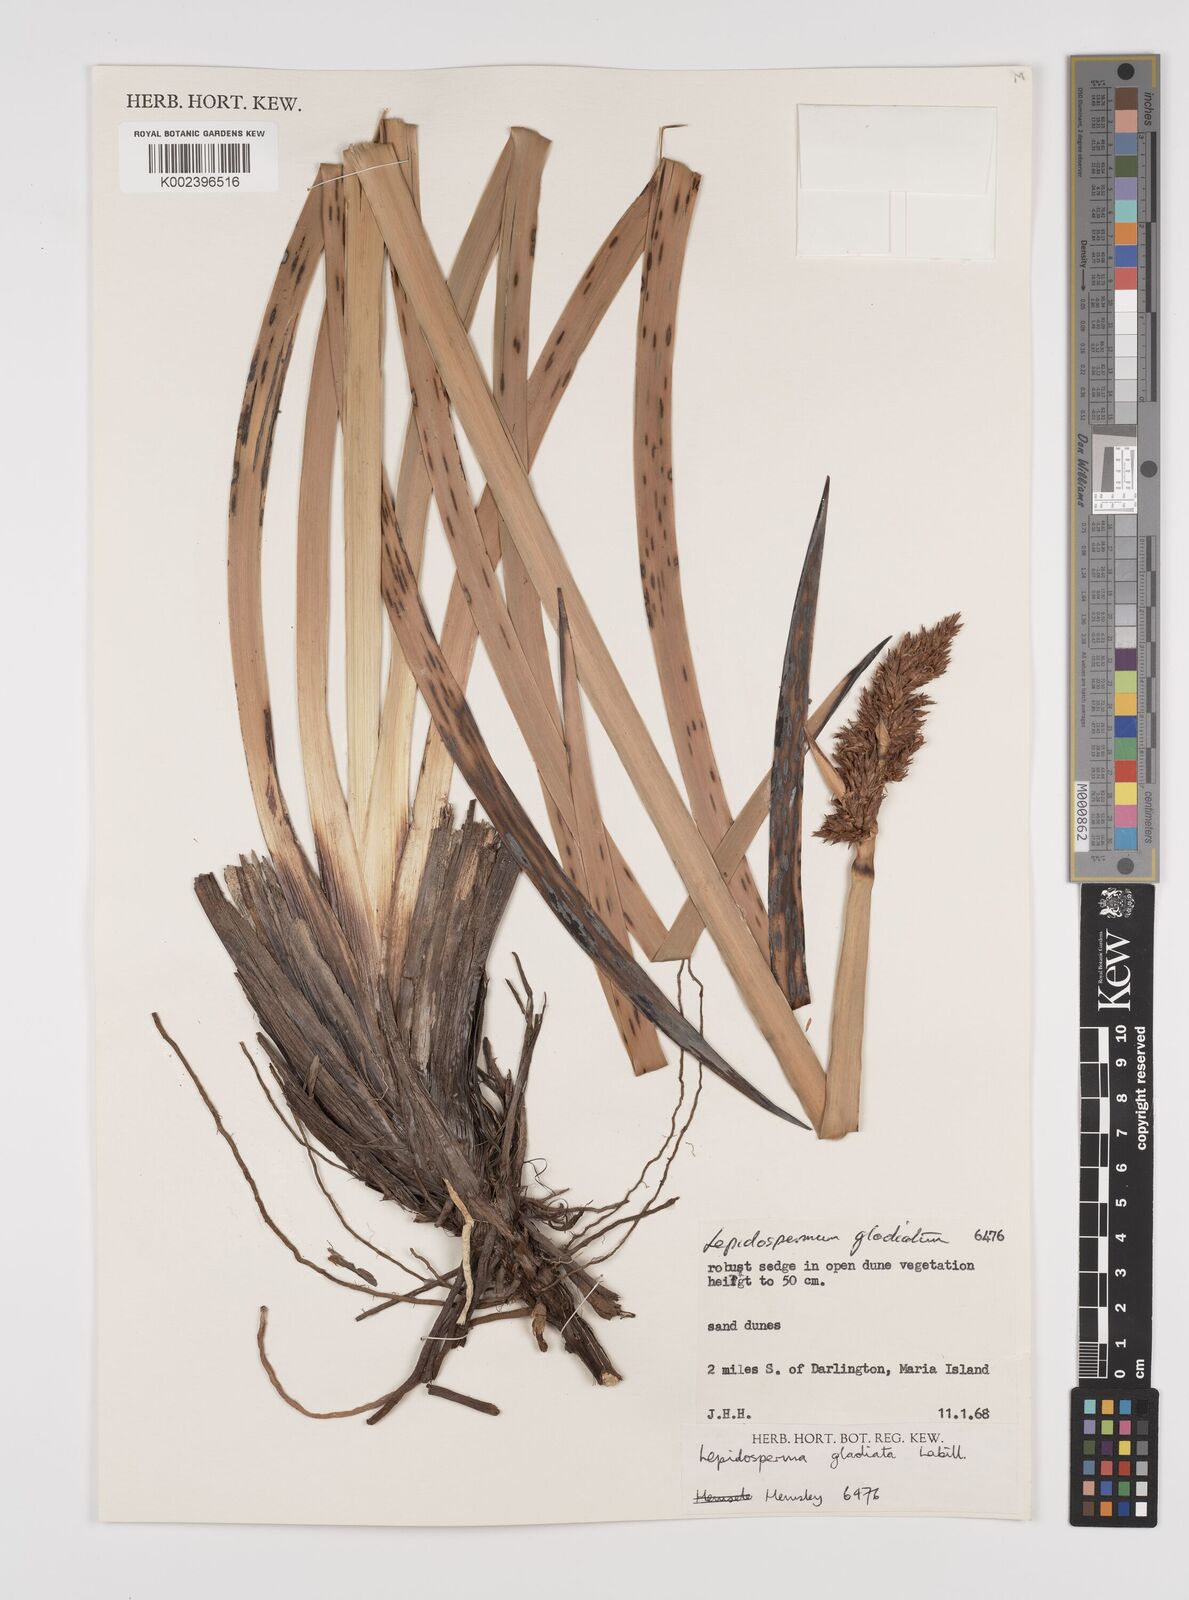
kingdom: Plantae
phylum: Tracheophyta
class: Liliopsida
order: Poales
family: Cyperaceae
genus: Lepidosperma
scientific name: Lepidosperma gladiatum
